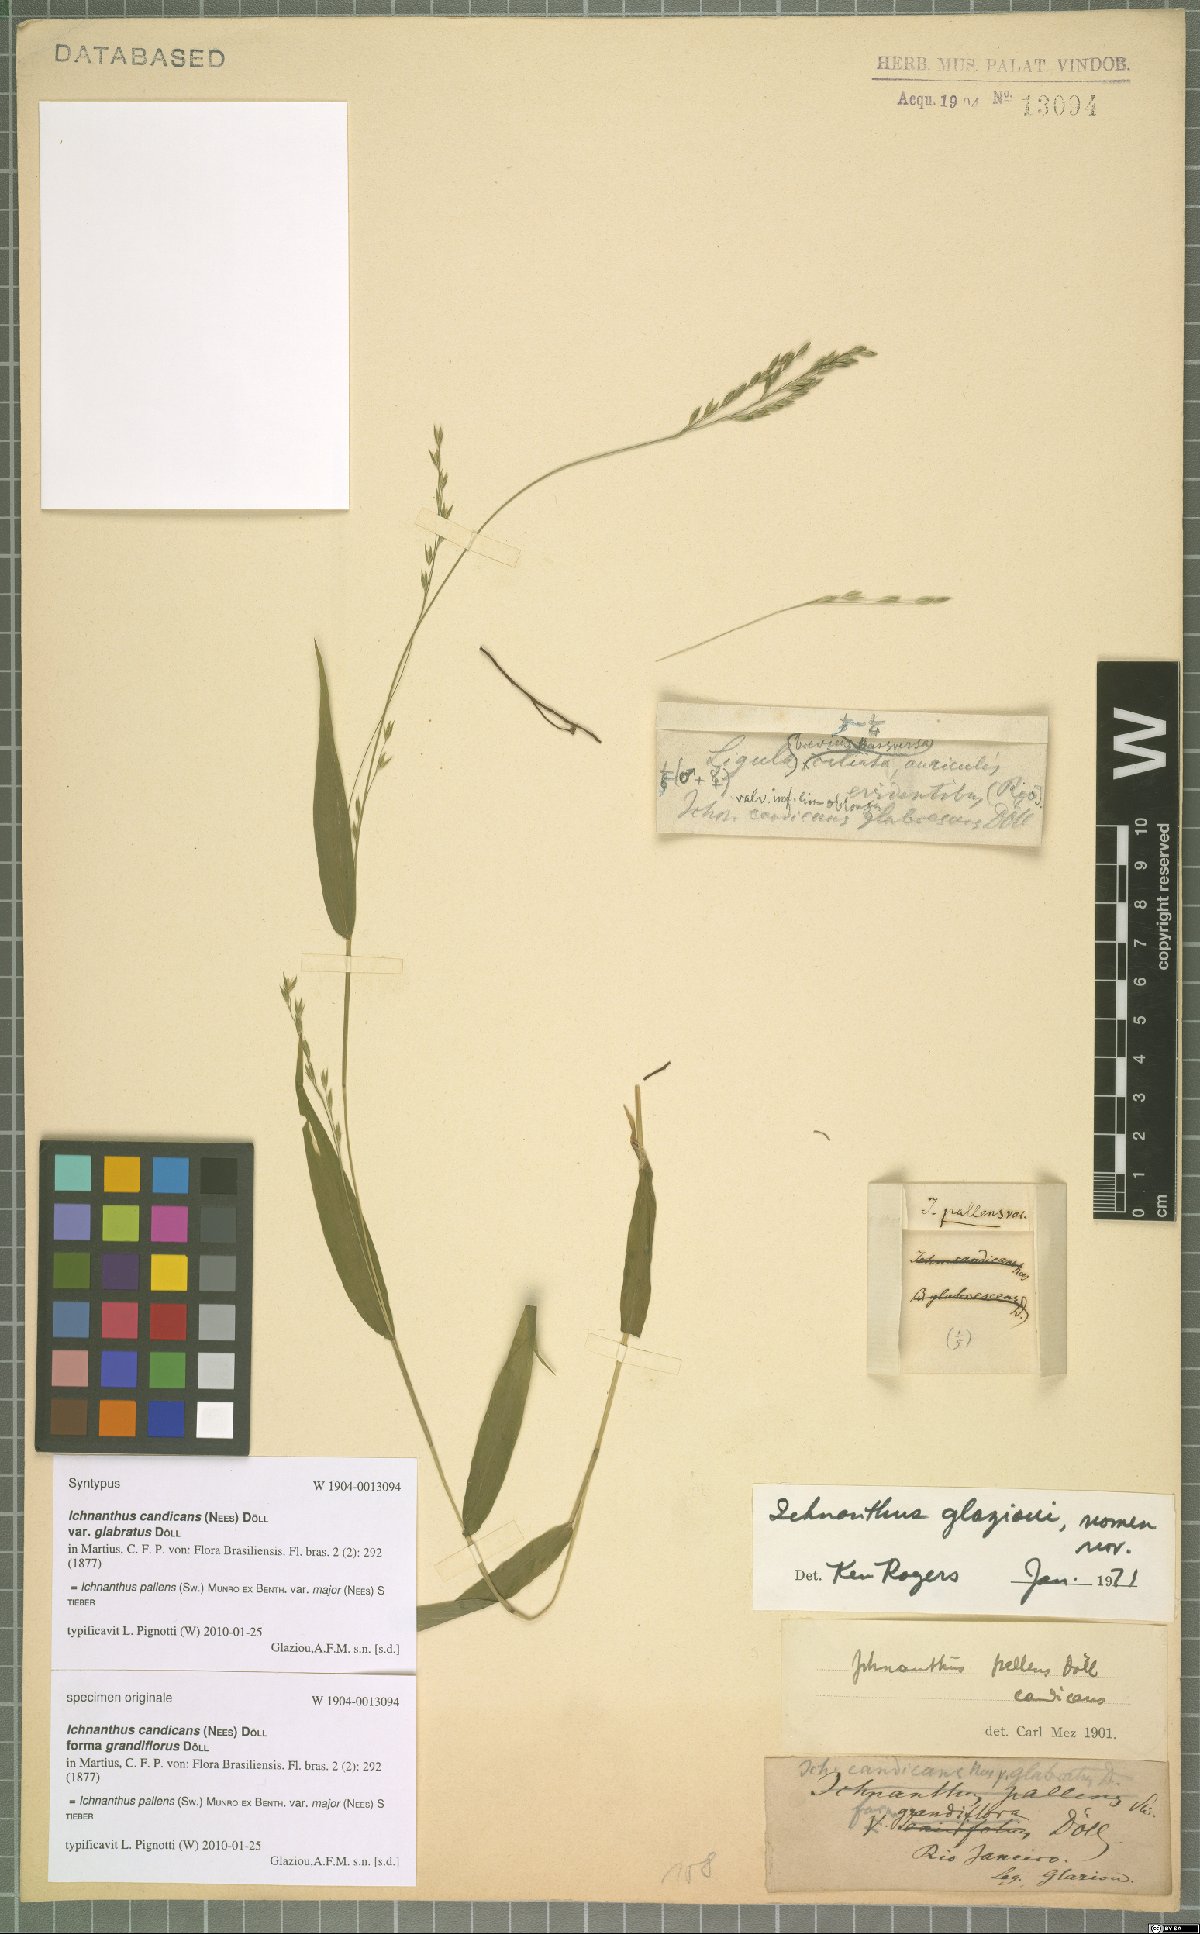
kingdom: Plantae
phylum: Tracheophyta
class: Liliopsida
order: Poales
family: Poaceae
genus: Ichnanthus
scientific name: Ichnanthus pallens
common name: Water grass
